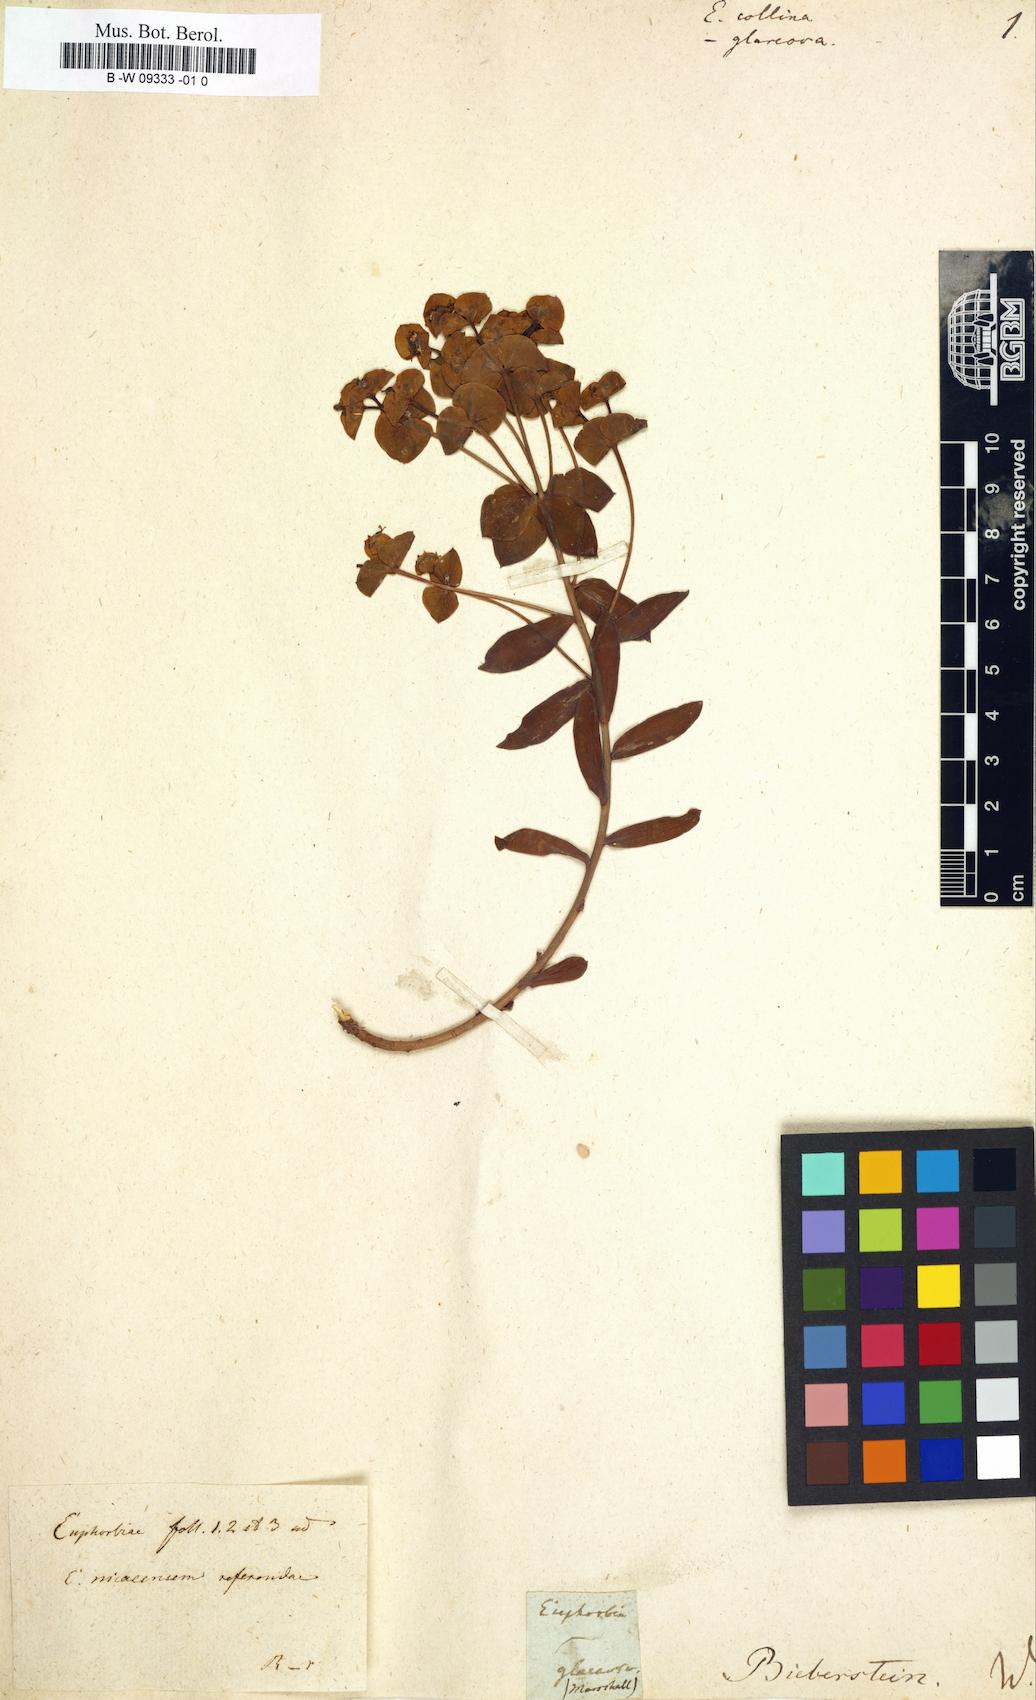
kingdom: Plantae
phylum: Tracheophyta
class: Magnoliopsida
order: Malpighiales
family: Euphorbiaceae
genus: Euphorbia
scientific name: Euphorbia collina
